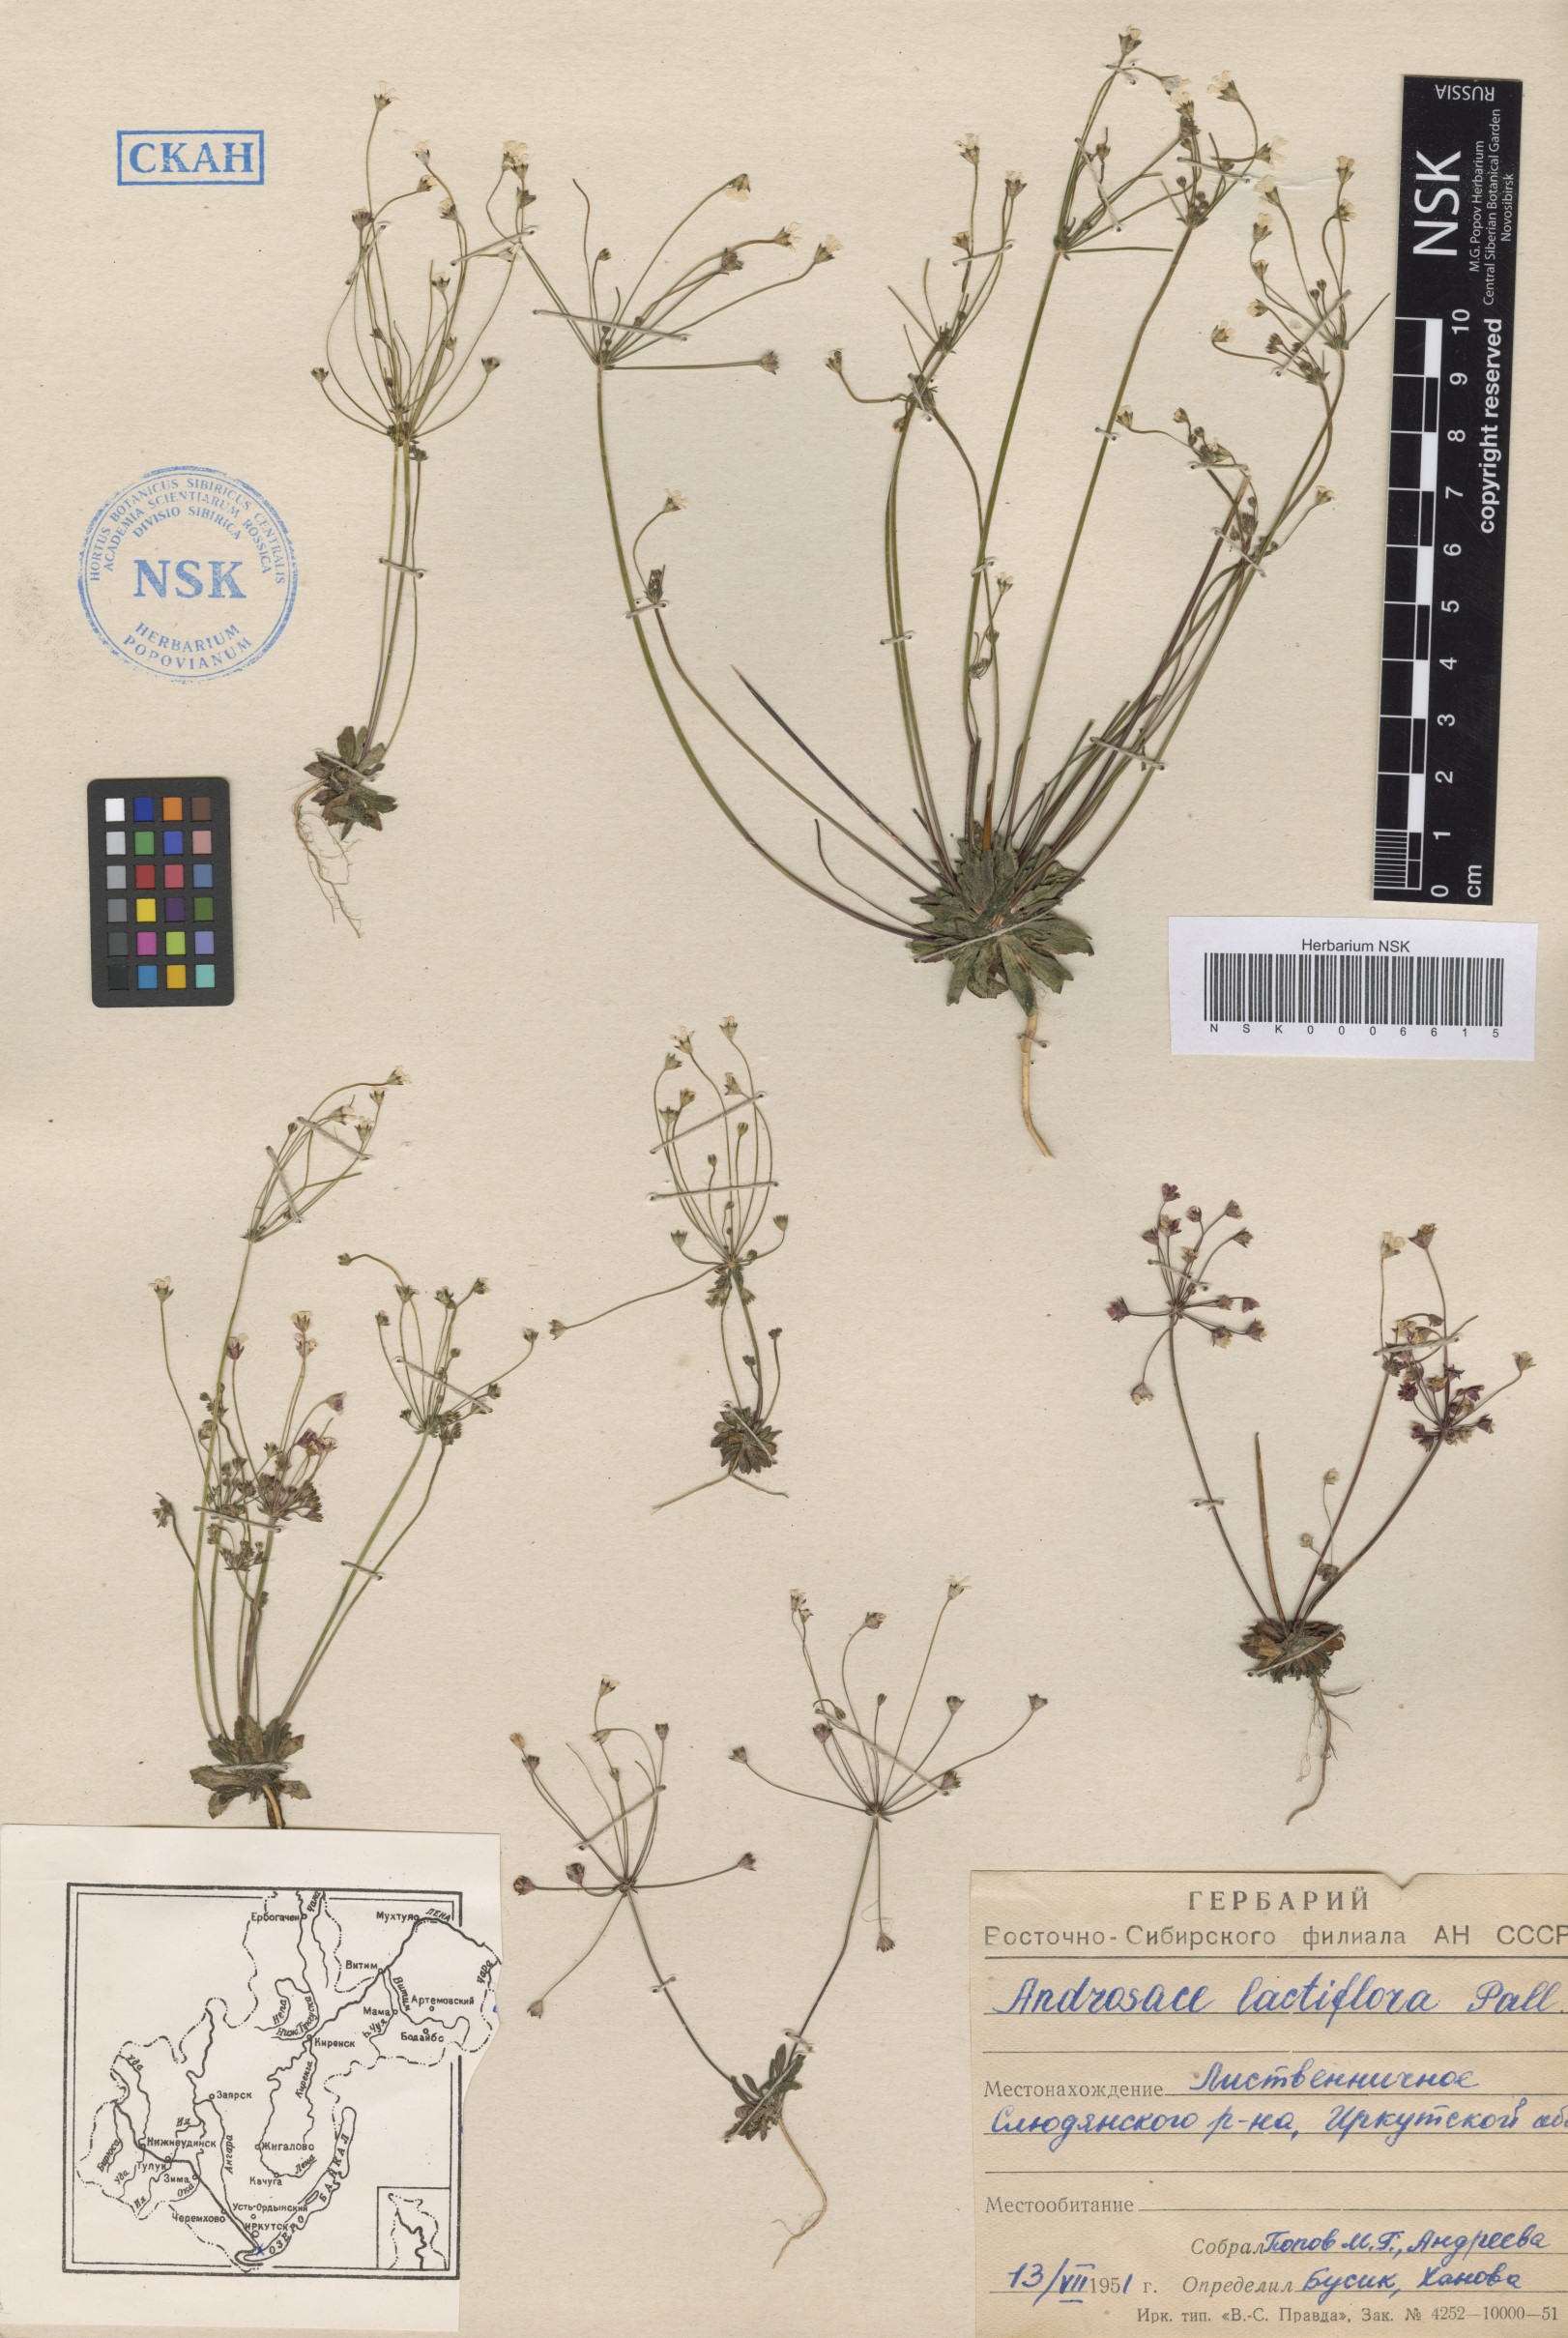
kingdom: Plantae
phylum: Tracheophyta
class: Magnoliopsida
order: Ericales
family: Primulaceae
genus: Androsace
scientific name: Androsace lactiflora
